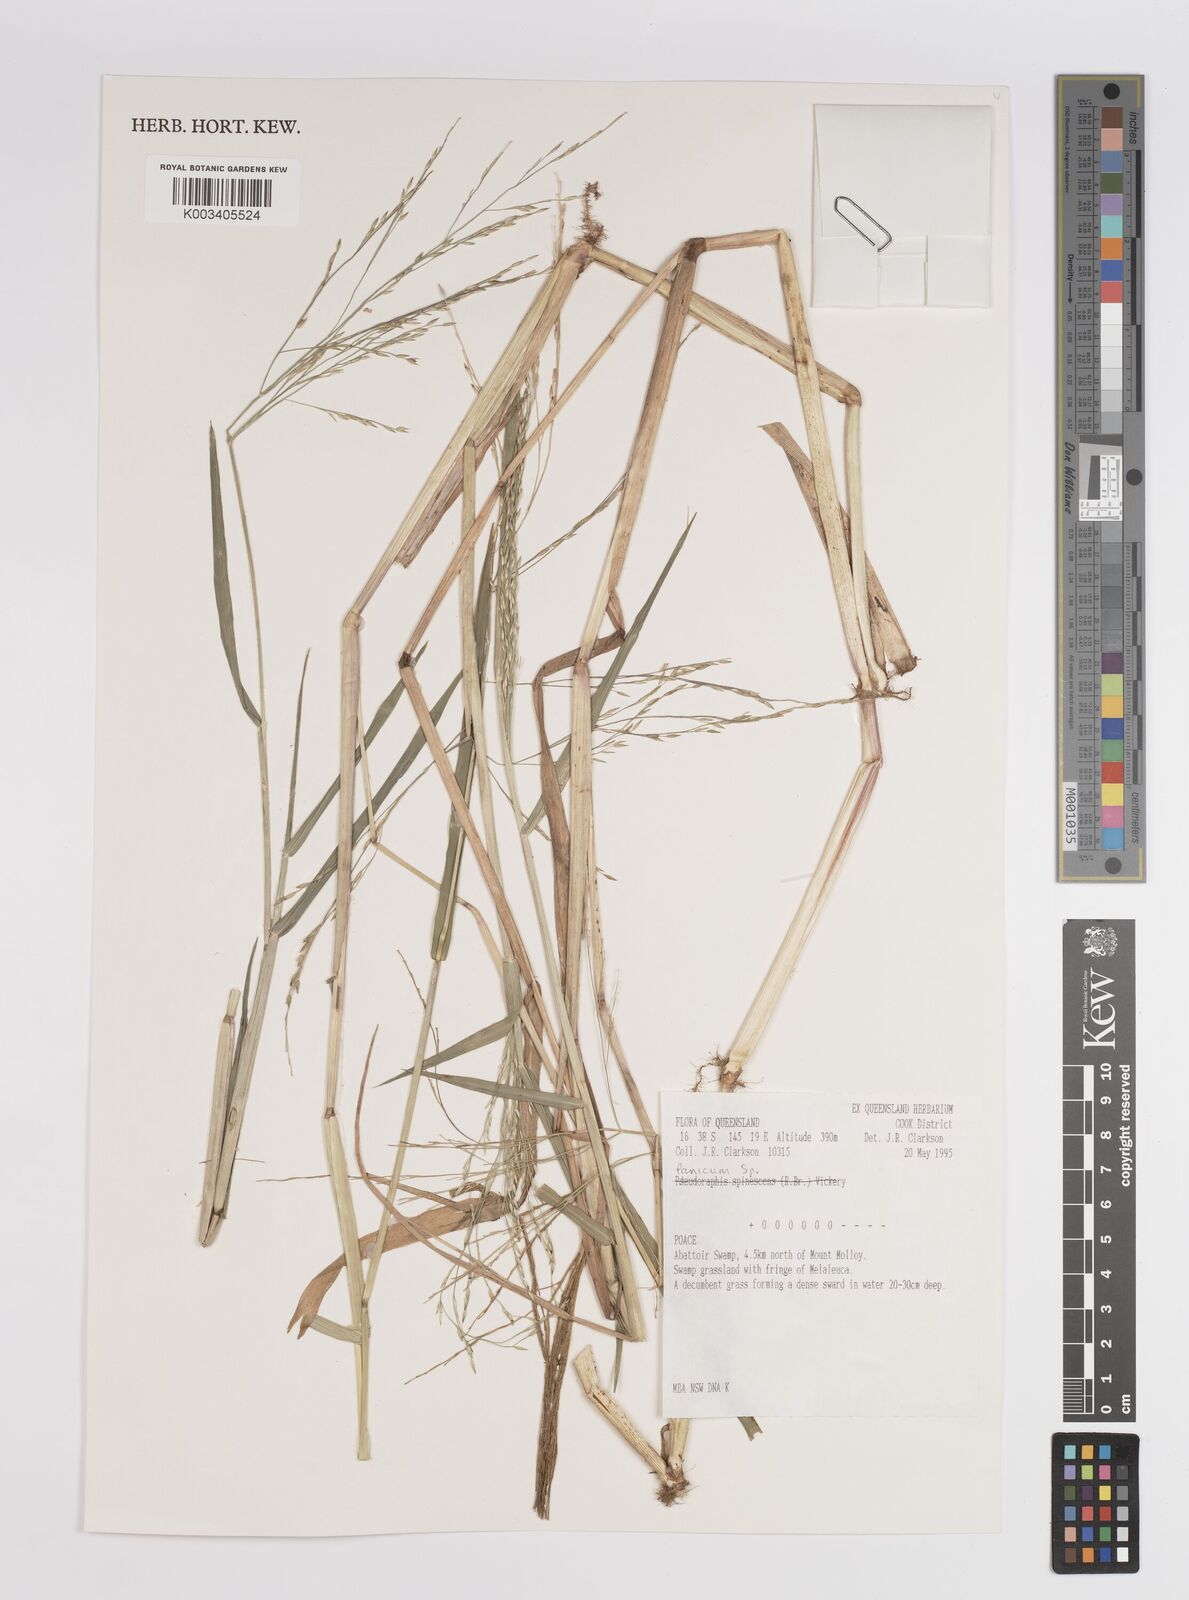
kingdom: Plantae
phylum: Tracheophyta
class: Liliopsida
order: Poales
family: Poaceae
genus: Panicum
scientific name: Panicum
